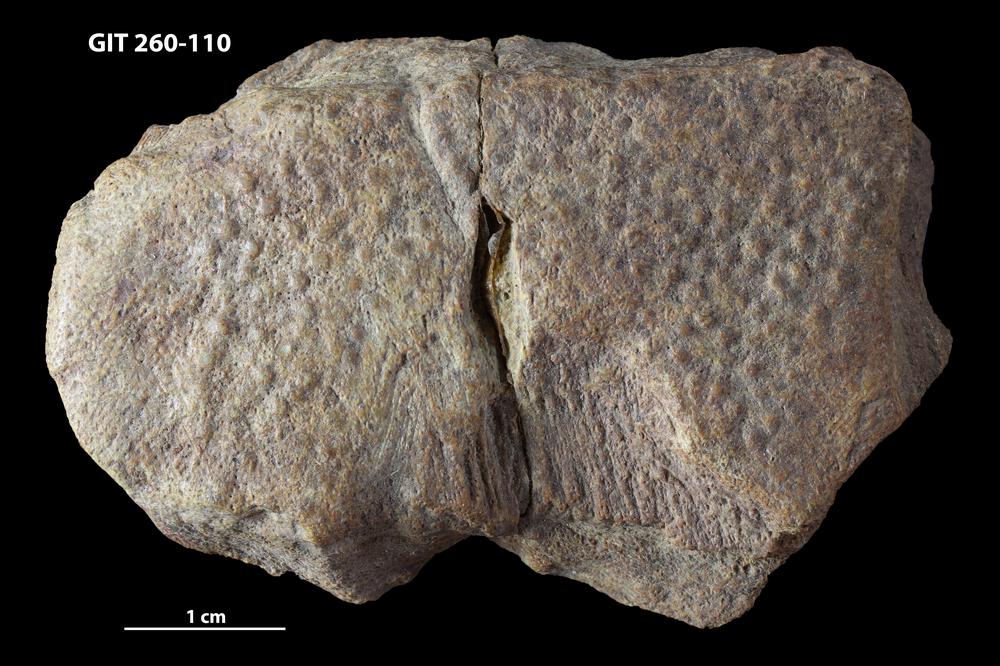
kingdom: Animalia
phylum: Chordata
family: Homostiidae
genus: Homostius
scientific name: Homostius
